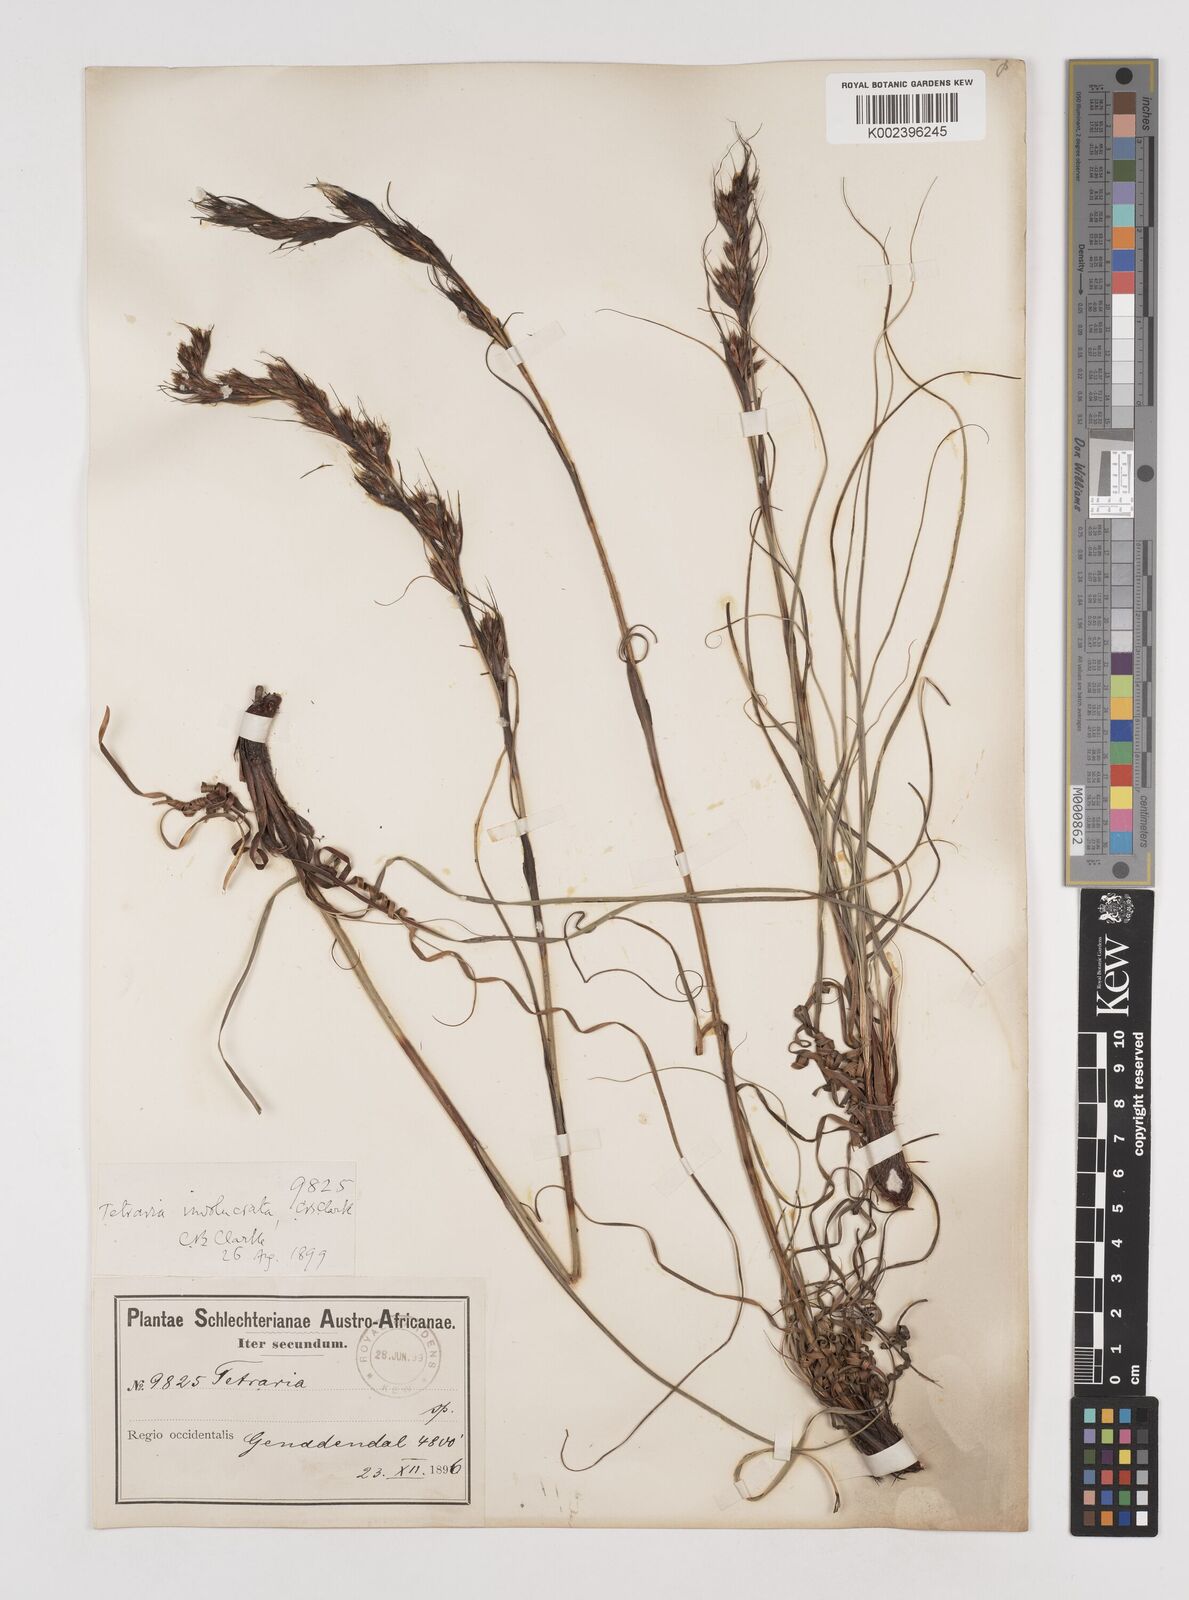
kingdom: Plantae
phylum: Tracheophyta
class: Liliopsida
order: Poales
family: Cyperaceae
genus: Tetraria
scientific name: Tetraria involucrata
